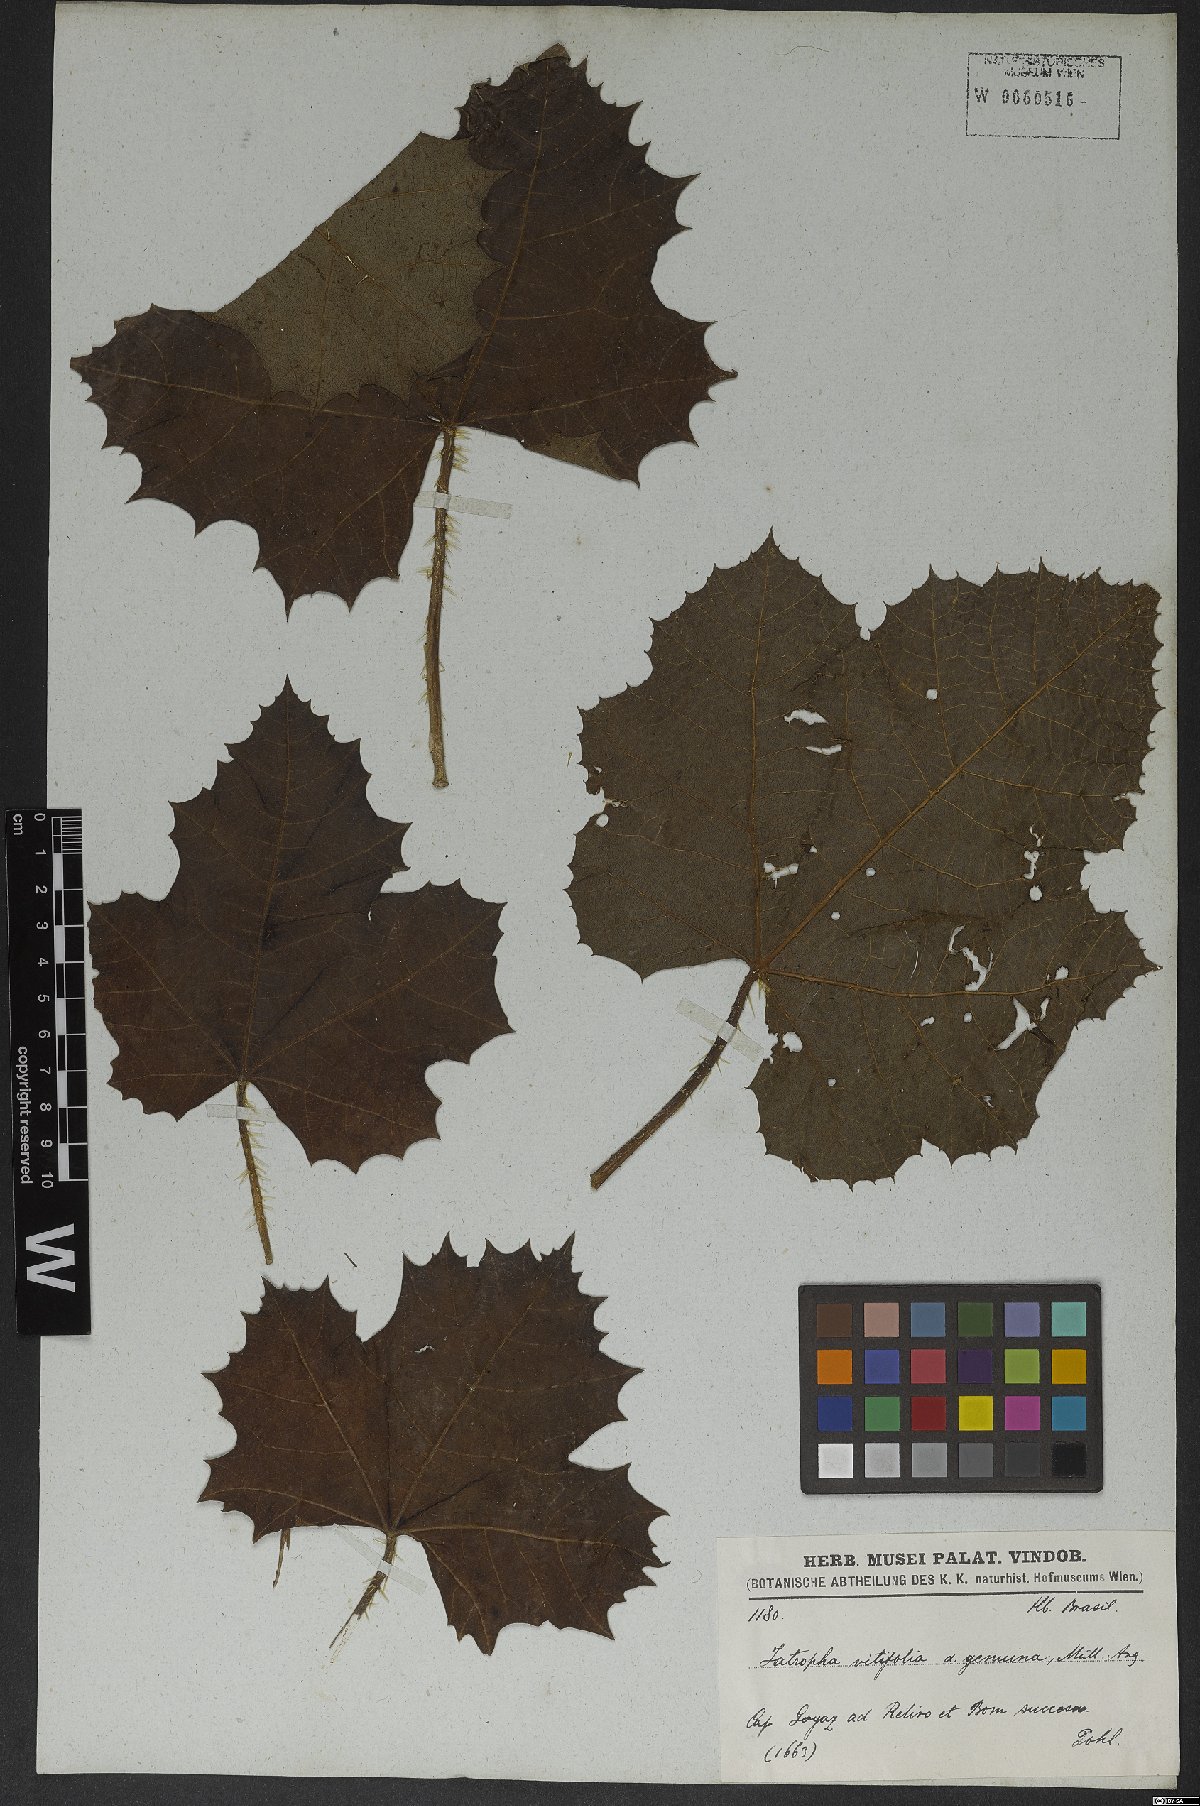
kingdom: Plantae
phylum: Tracheophyta
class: Magnoliopsida
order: Malpighiales
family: Euphorbiaceae
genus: Cnidoscolus
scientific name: Cnidoscolus vitifolius
